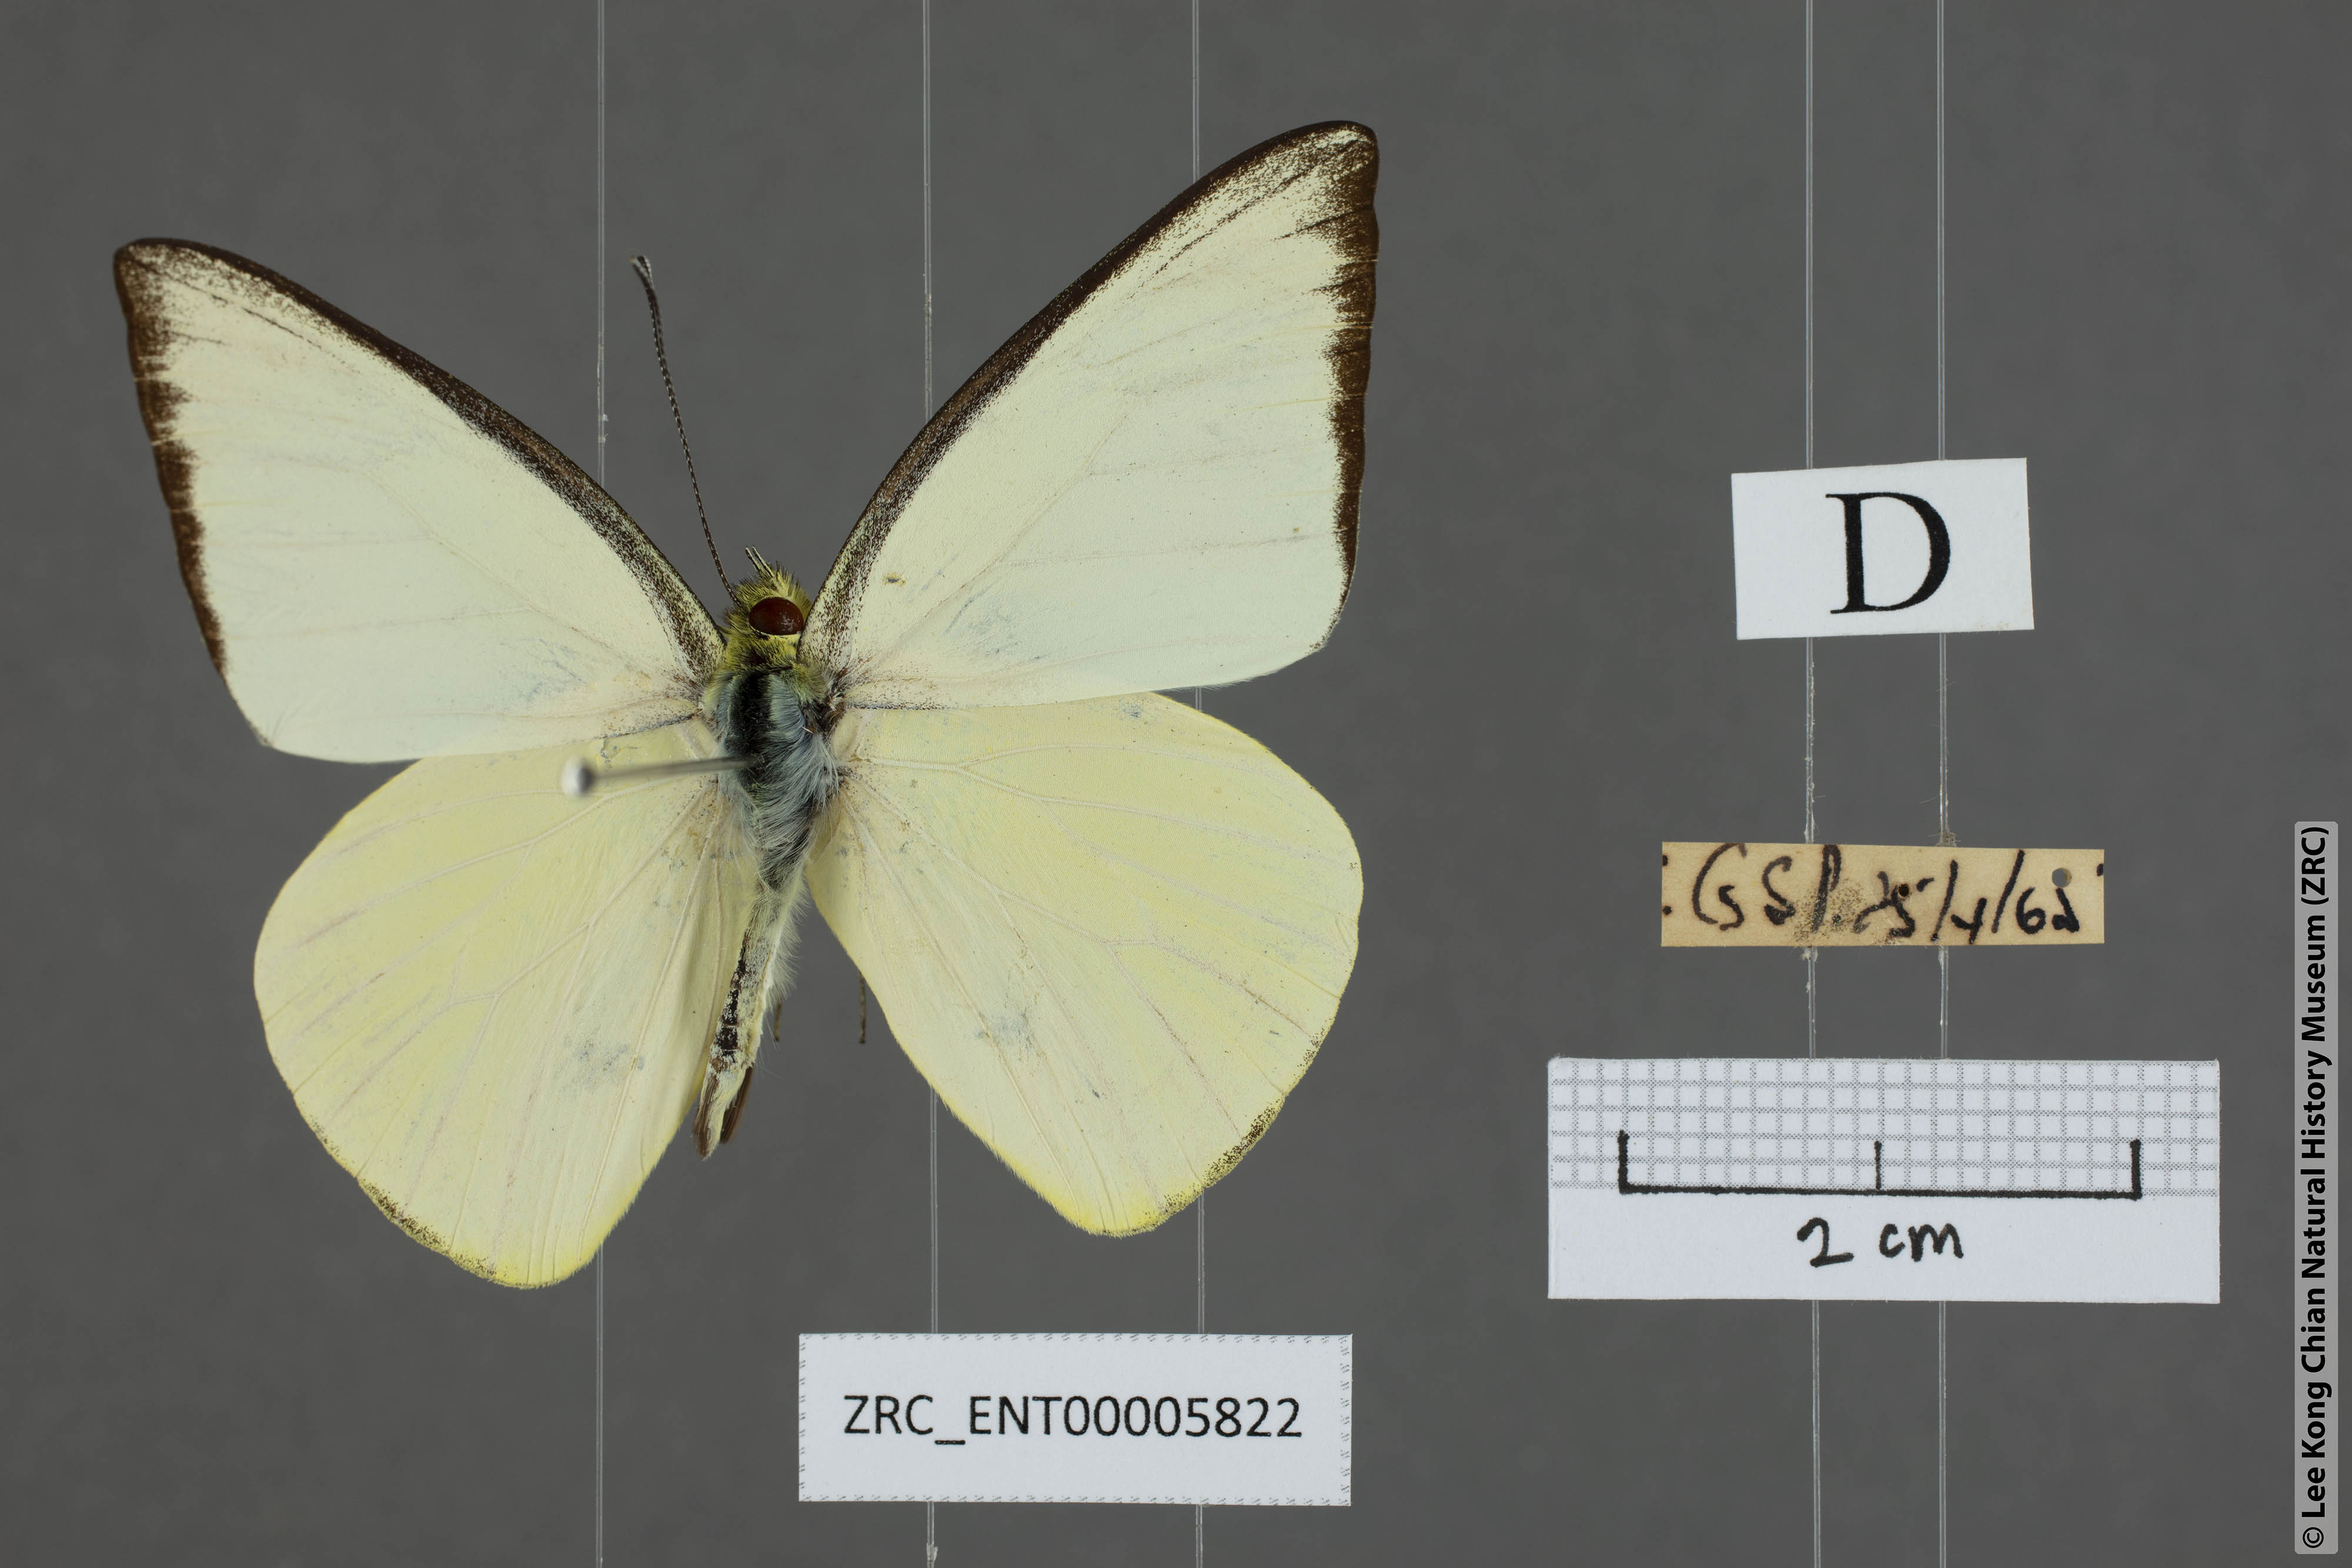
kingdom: Animalia
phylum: Arthropoda
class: Insecta
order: Lepidoptera
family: Pieridae
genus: Saletara
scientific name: Saletara liberia
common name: Pointed albatross
